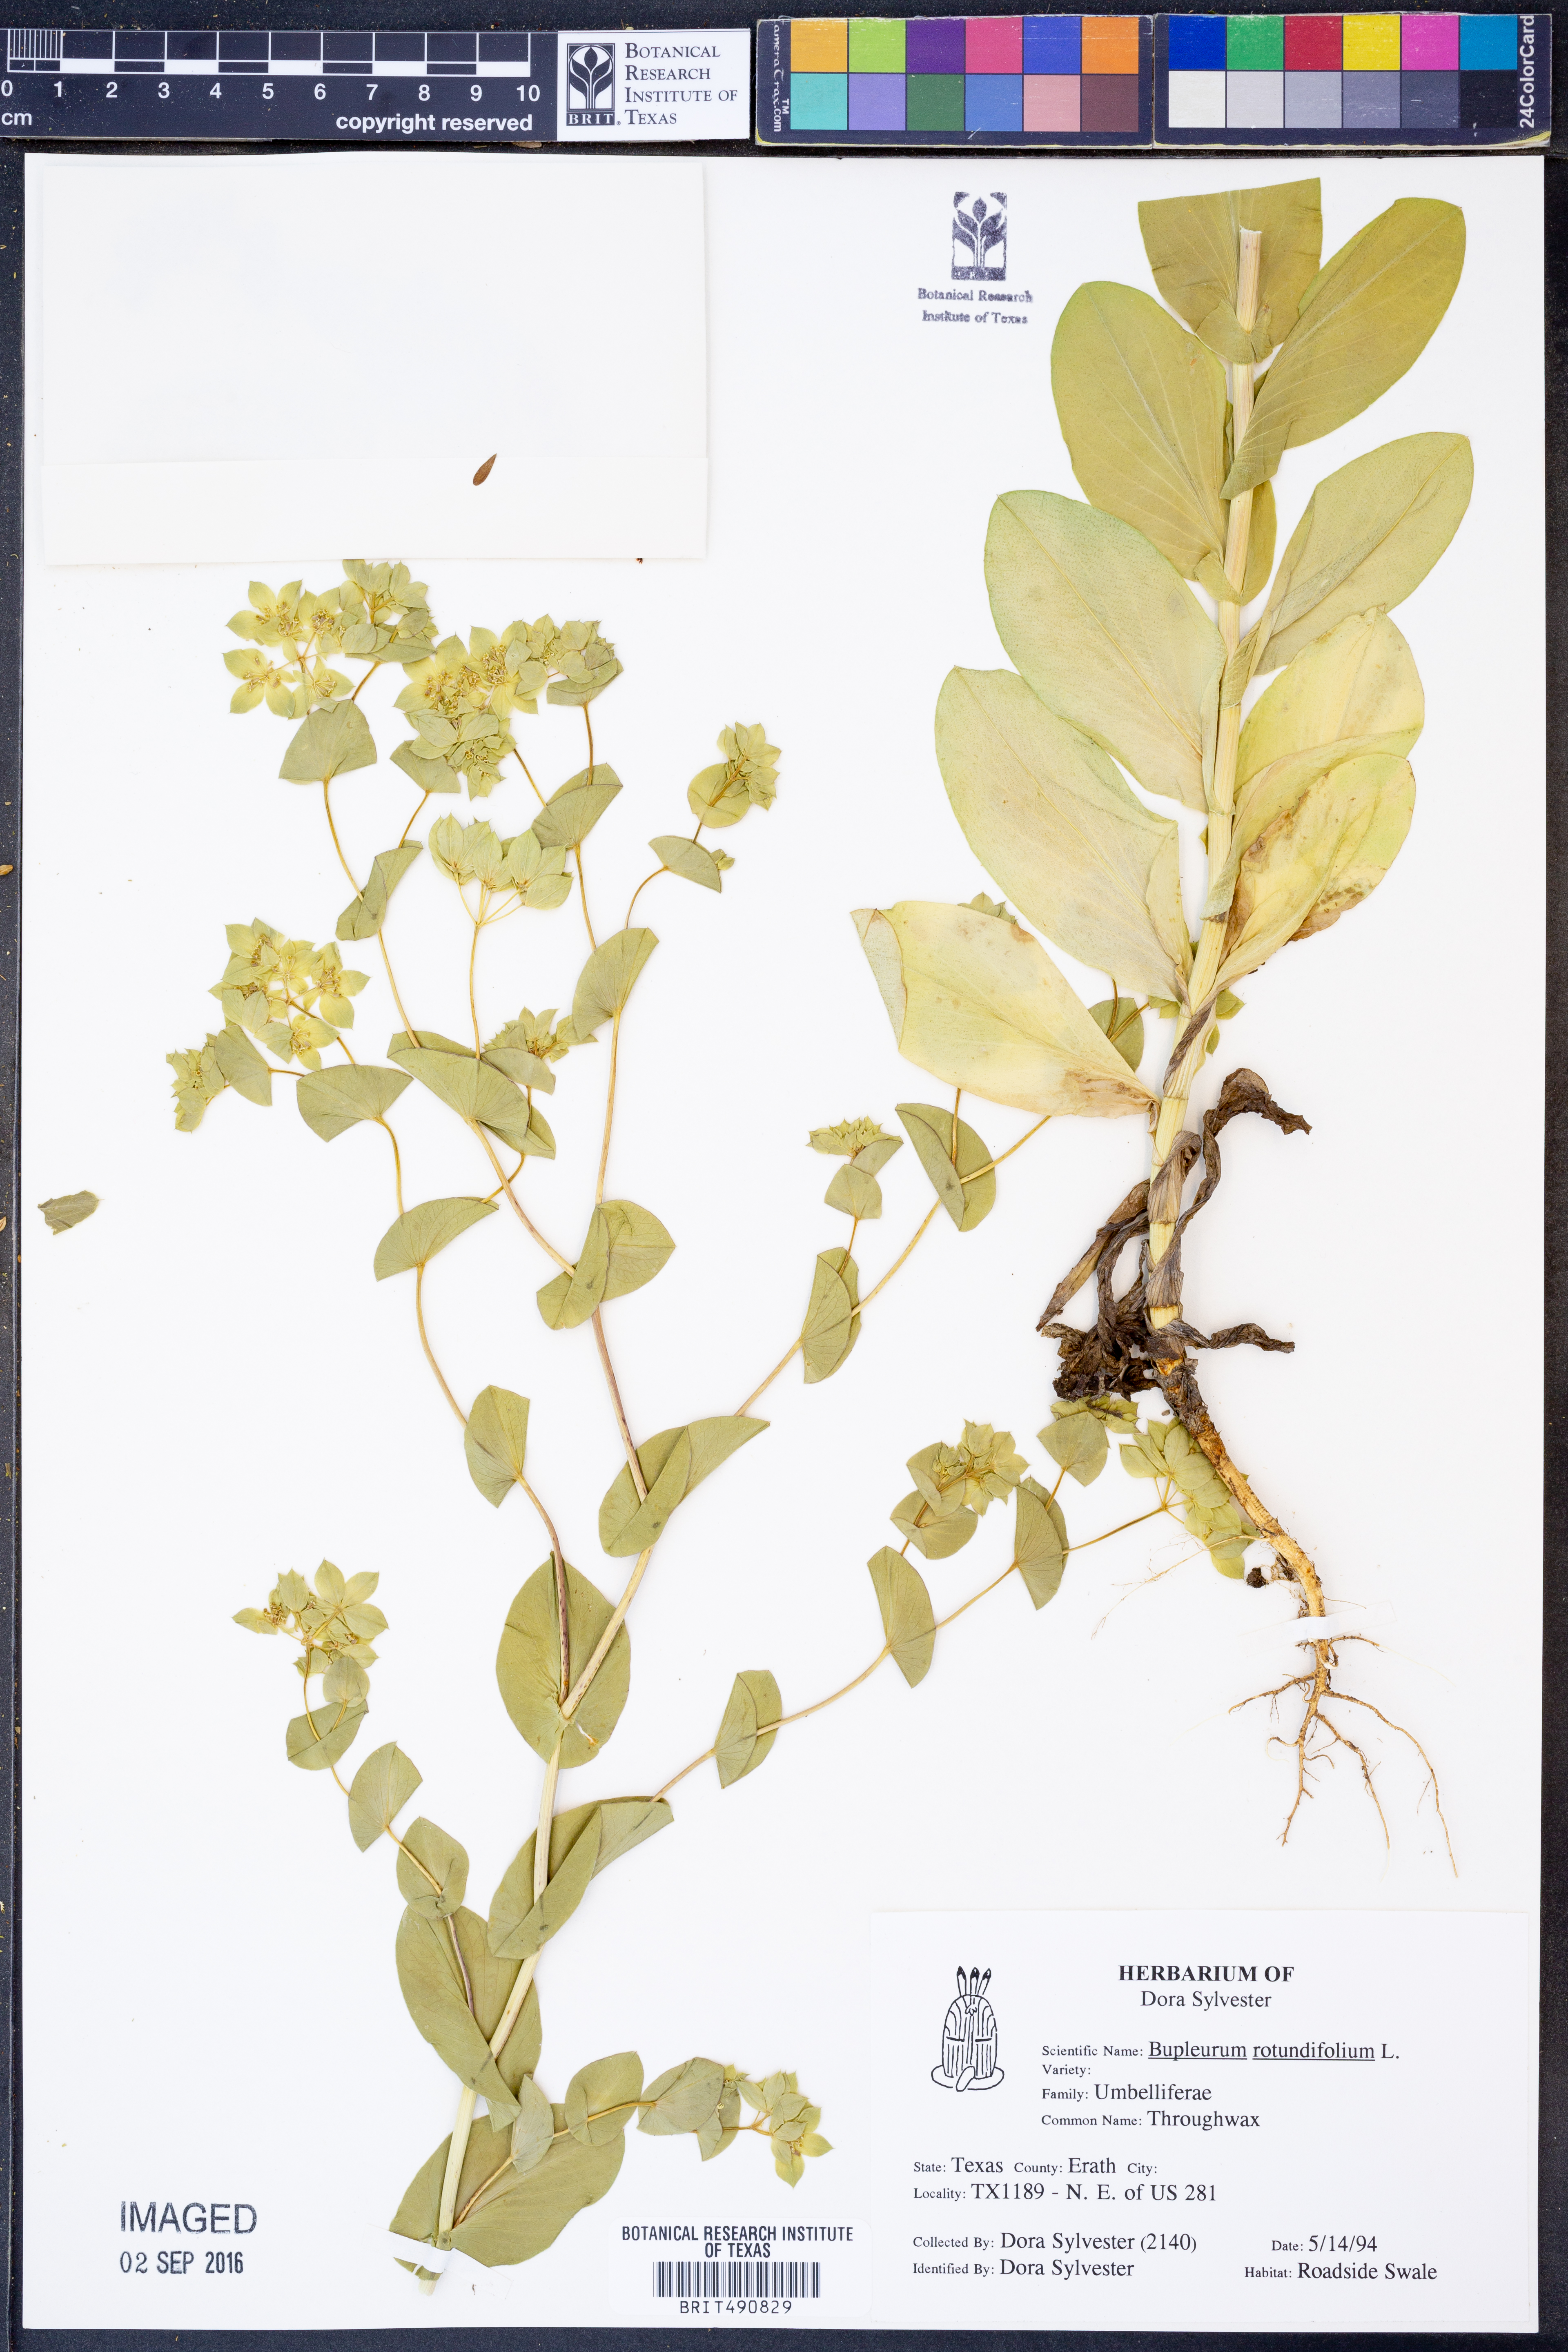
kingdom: Plantae
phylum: Tracheophyta
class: Magnoliopsida
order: Apiales
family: Apiaceae
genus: Bupleurum
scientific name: Bupleurum rotundifolium
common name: Thorow-wax
